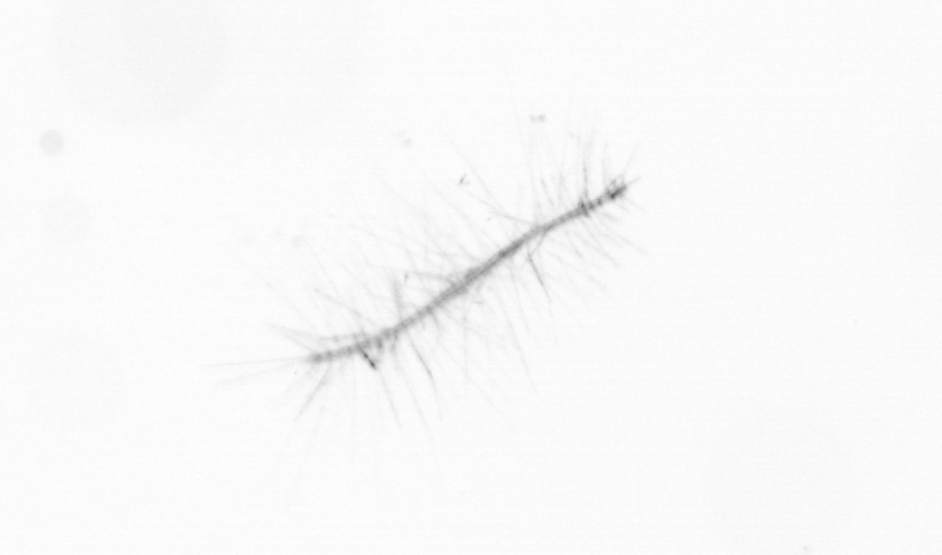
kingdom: Chromista
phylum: Ochrophyta
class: Bacillariophyceae
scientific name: Bacillariophyceae
